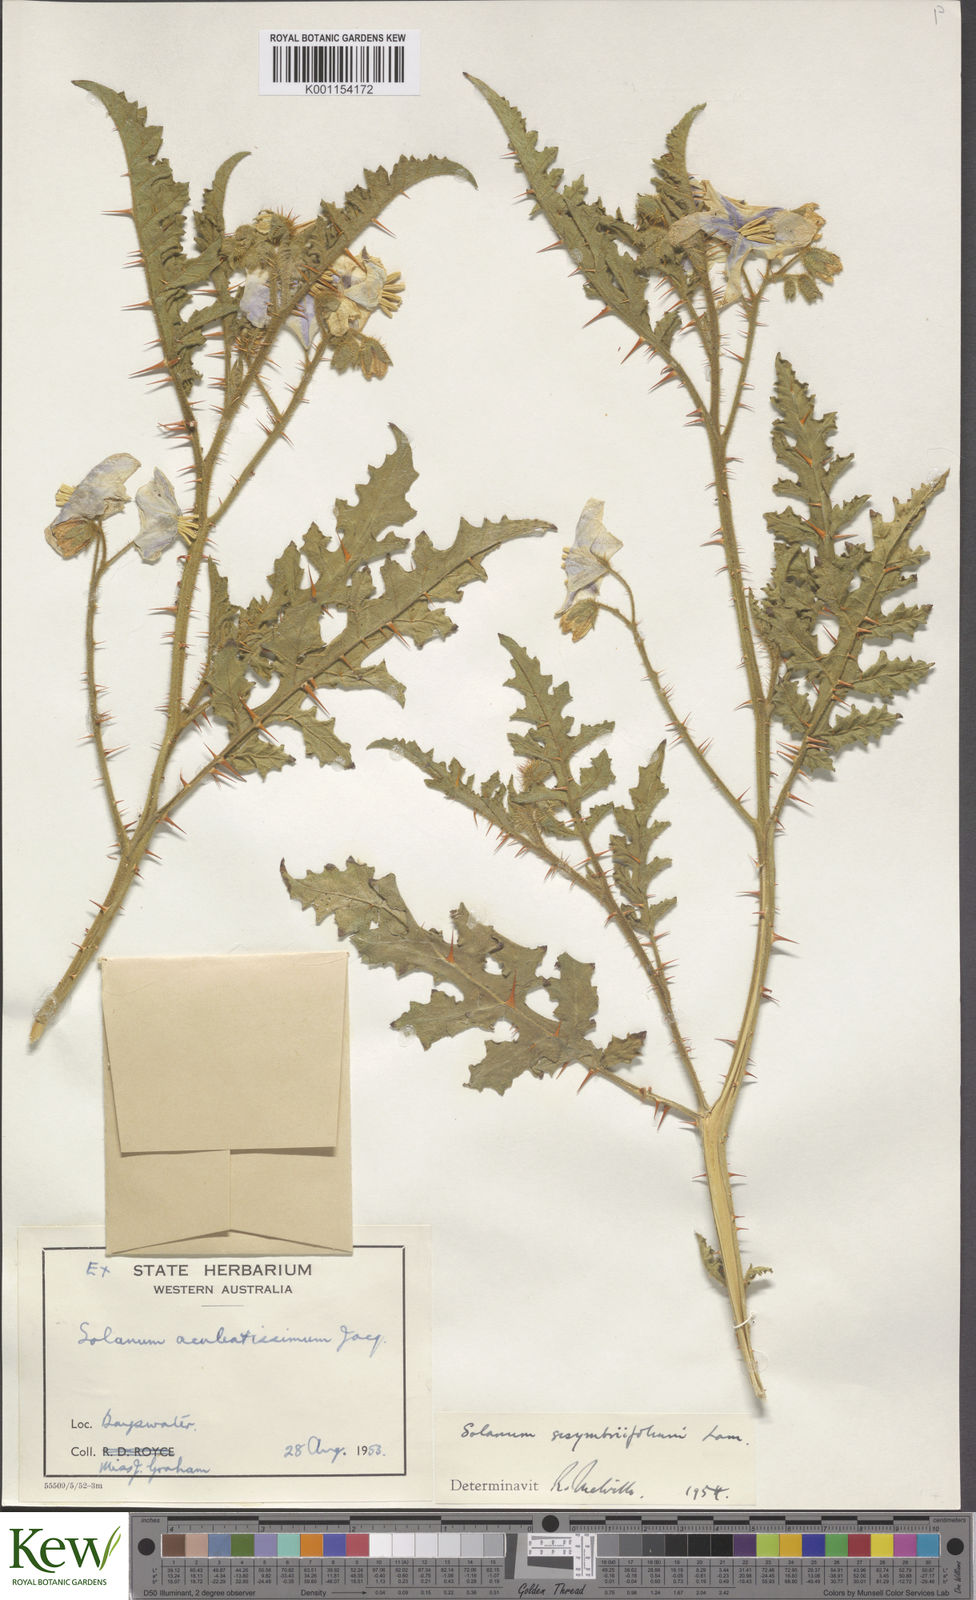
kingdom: Plantae
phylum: Tracheophyta
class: Magnoliopsida
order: Solanales
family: Solanaceae
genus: Solanum
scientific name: Solanum sisymbriifolium
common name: Red buffalo-bur
